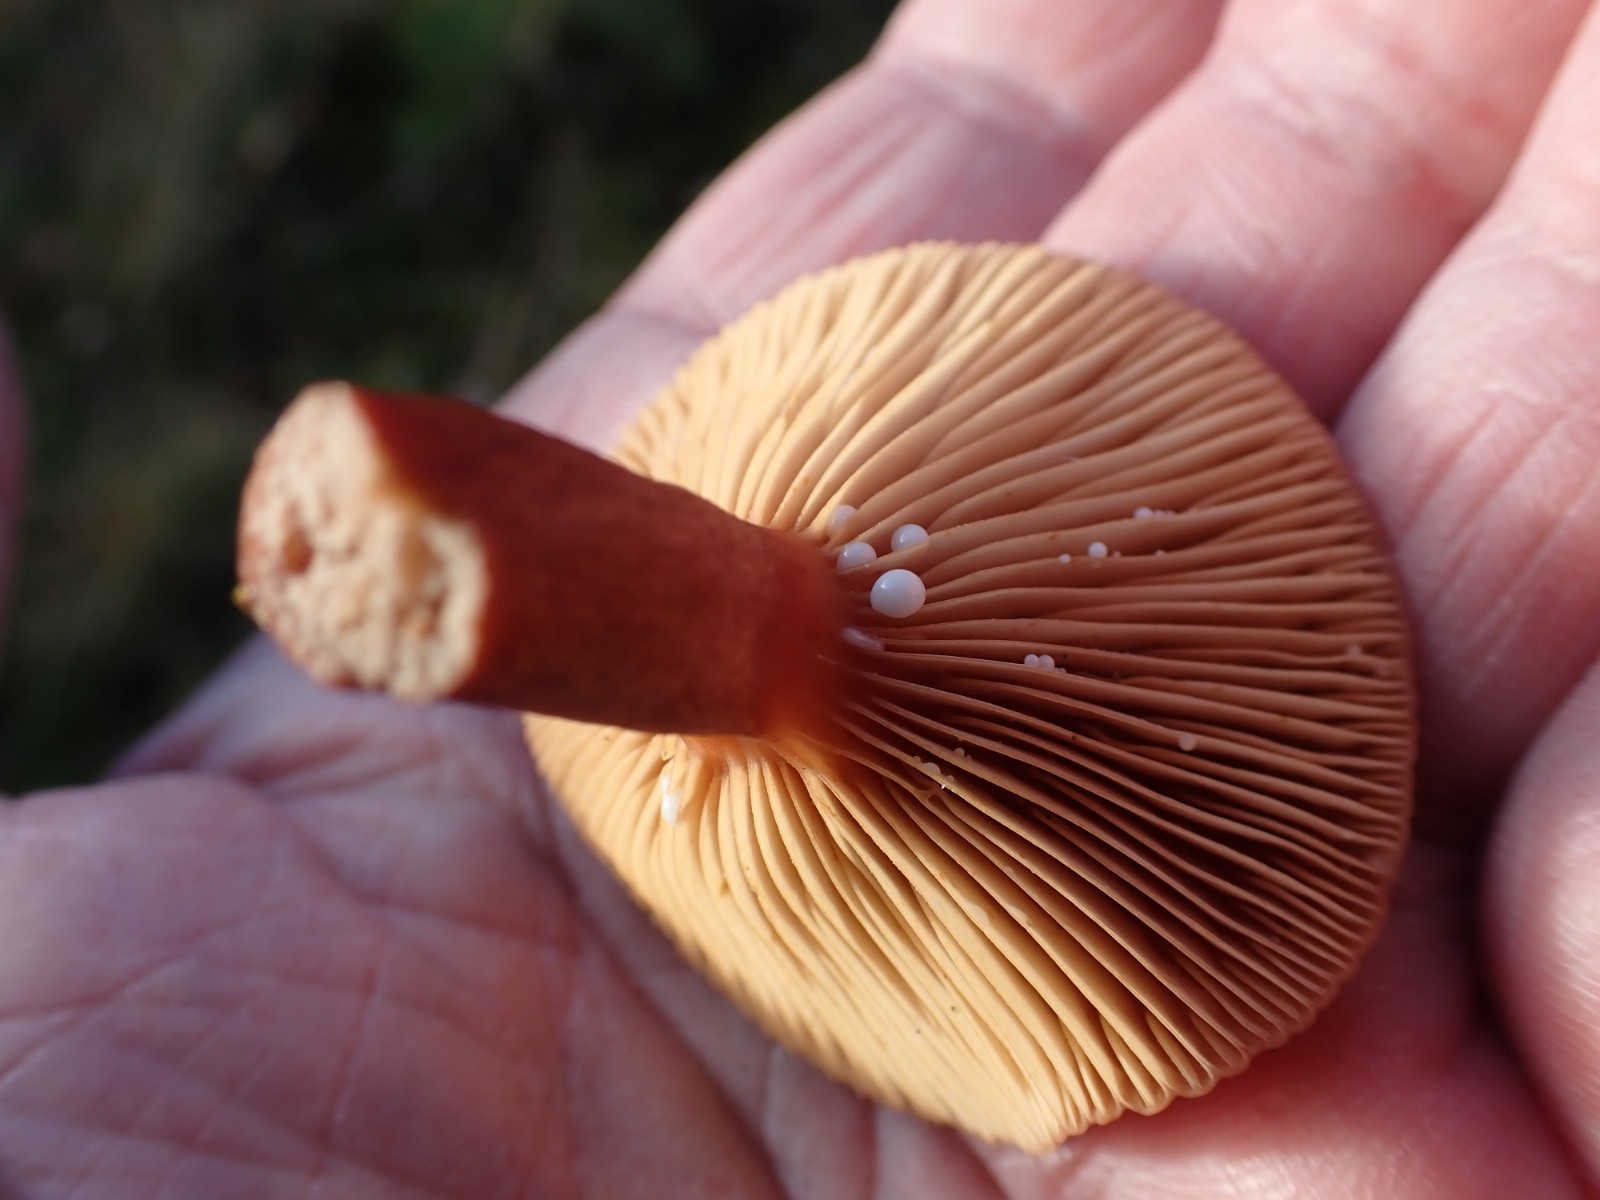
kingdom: Fungi
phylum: Basidiomycota
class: Agaricomycetes
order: Russulales
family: Russulaceae
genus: Lactarius
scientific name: Lactarius hepaticus
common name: leverbrun mælkehat
